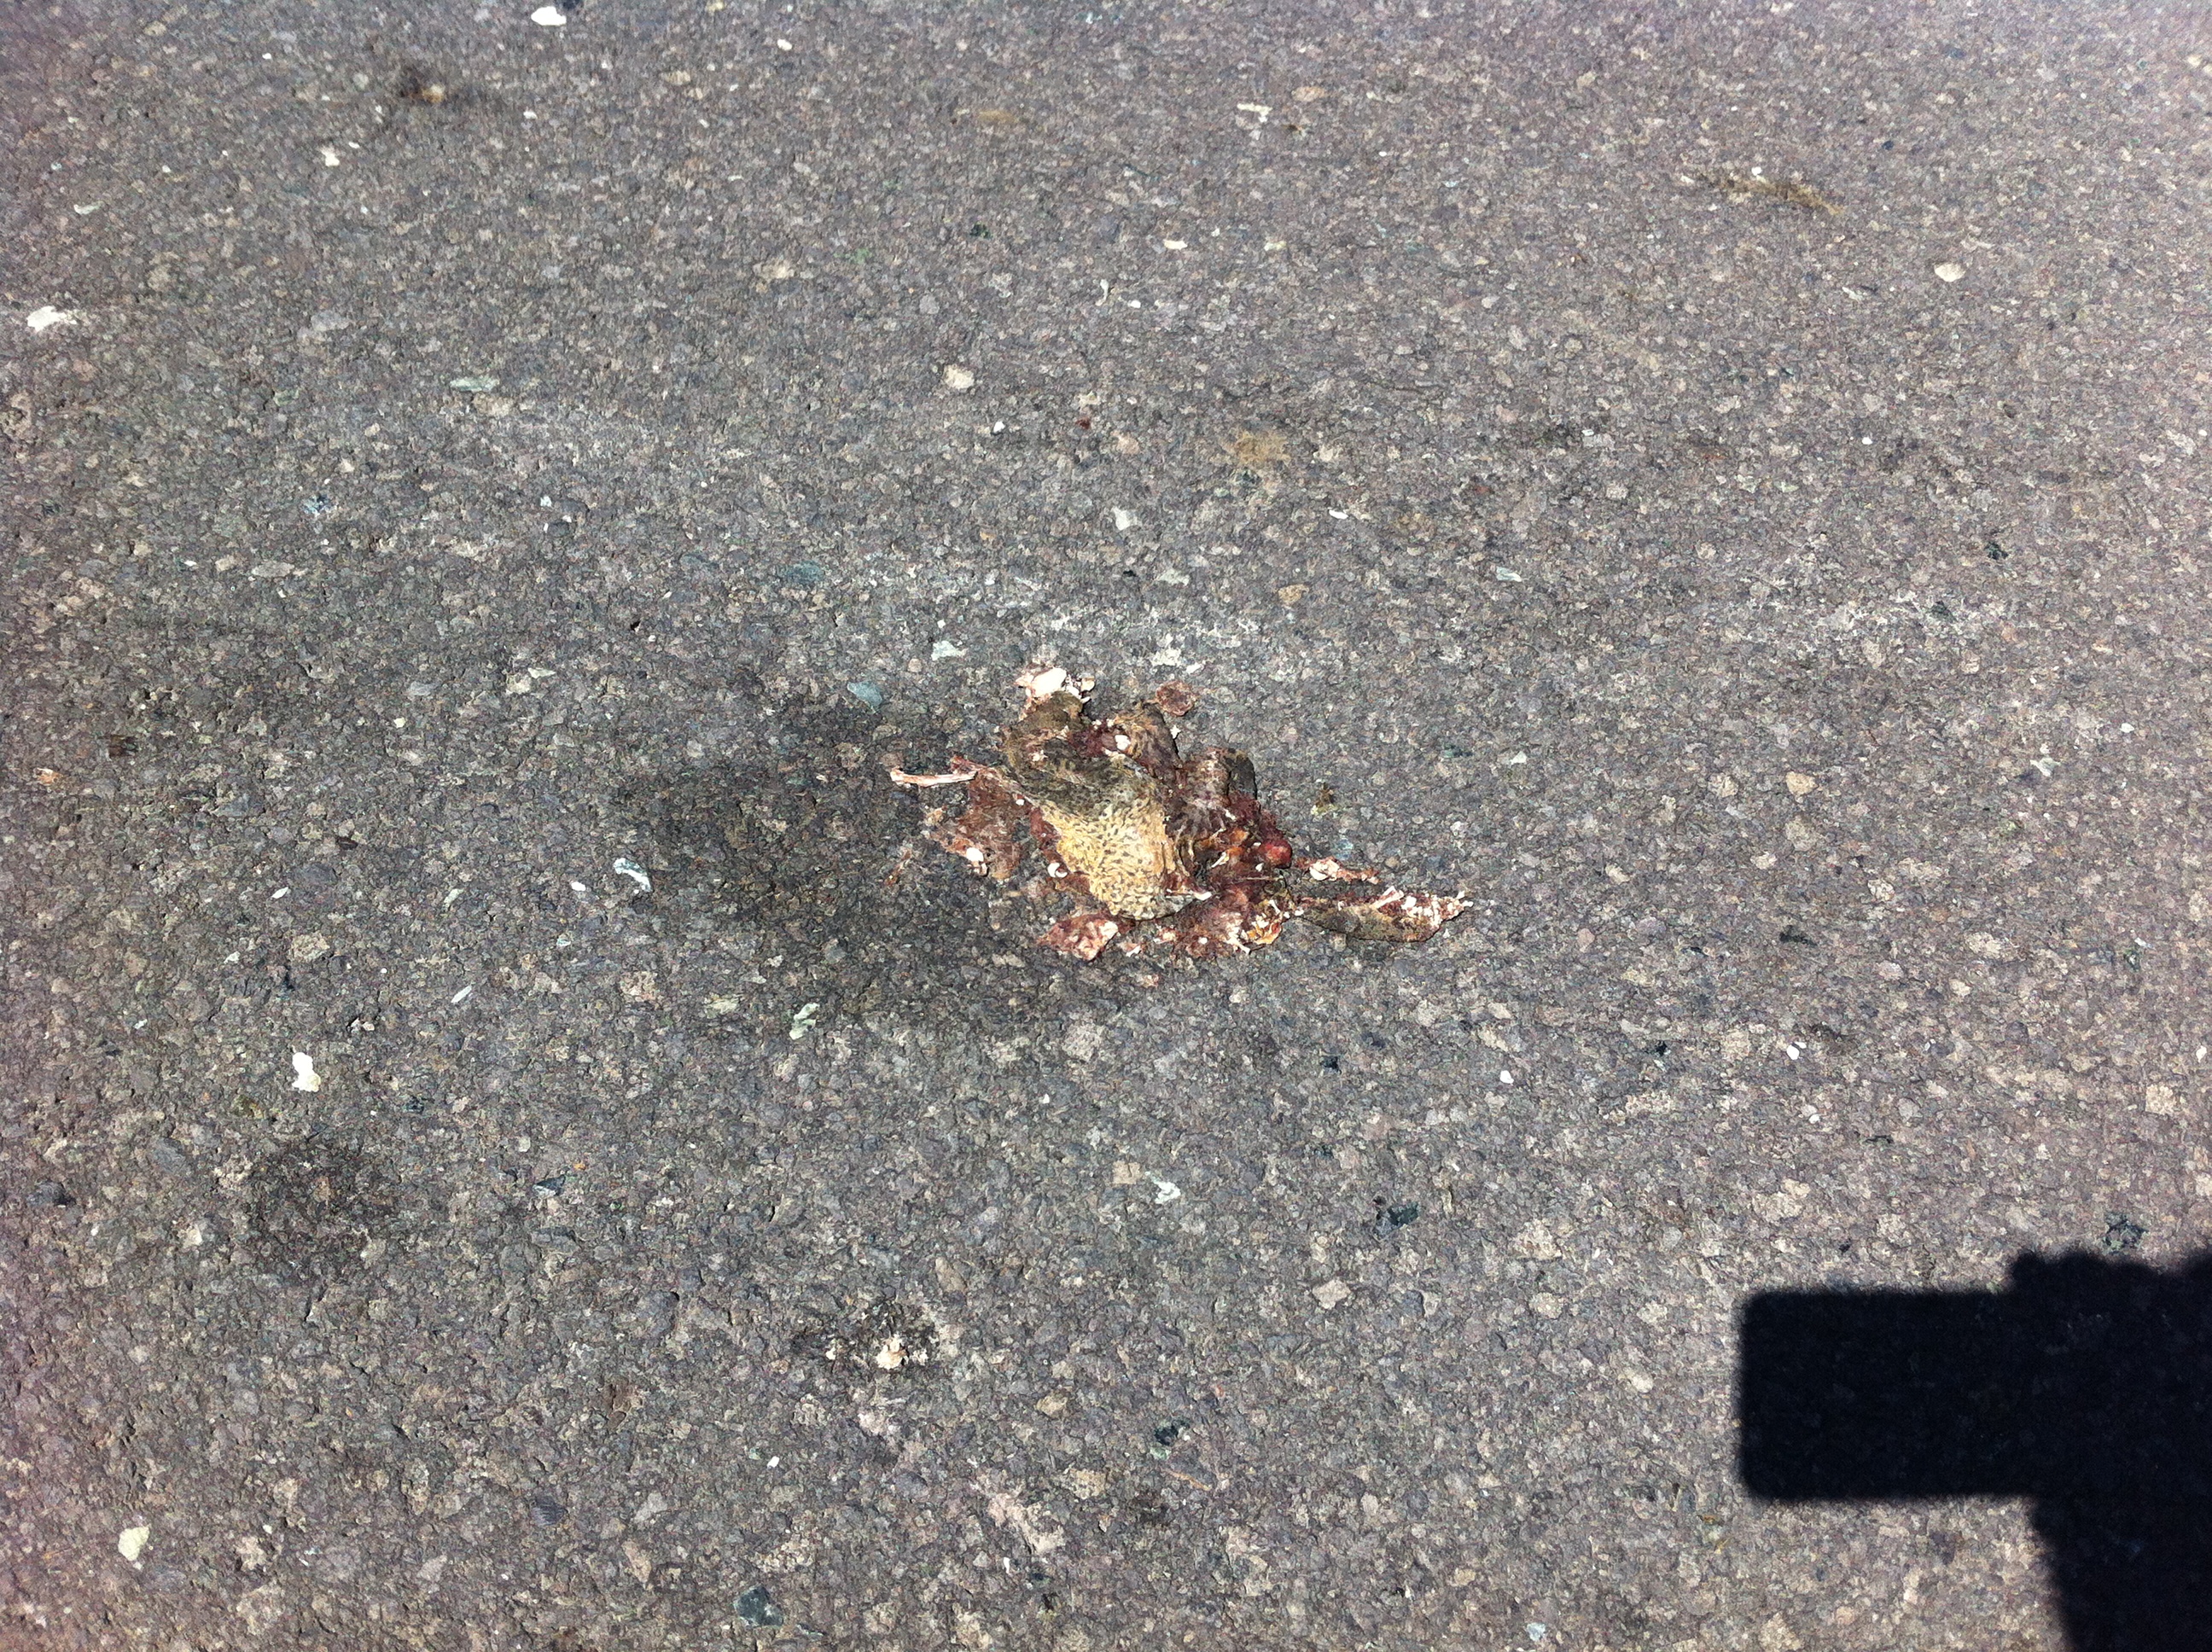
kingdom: Animalia
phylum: Chordata
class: Amphibia
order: Anura
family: Bufonidae
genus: Bufo
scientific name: Bufo bufo
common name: Common toad
